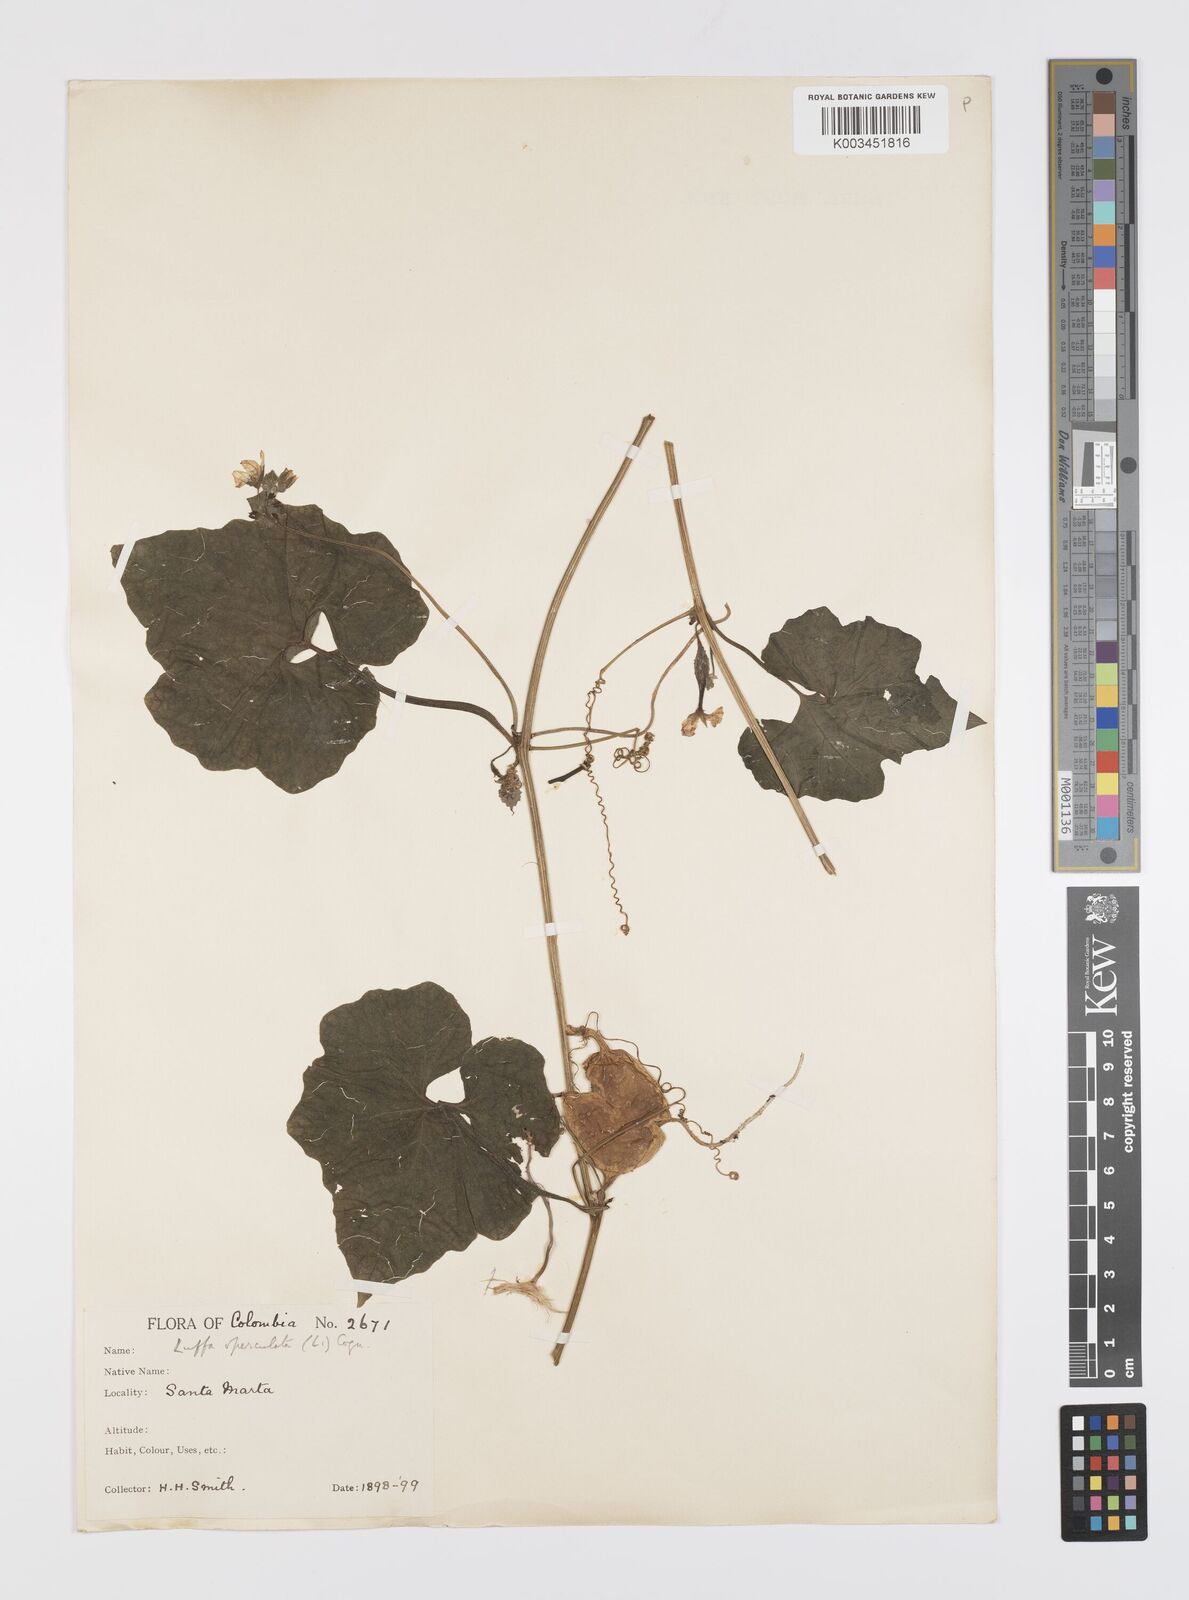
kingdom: Plantae
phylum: Tracheophyta
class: Magnoliopsida
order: Cucurbitales
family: Cucurbitaceae
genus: Luffa
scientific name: Luffa operculata
